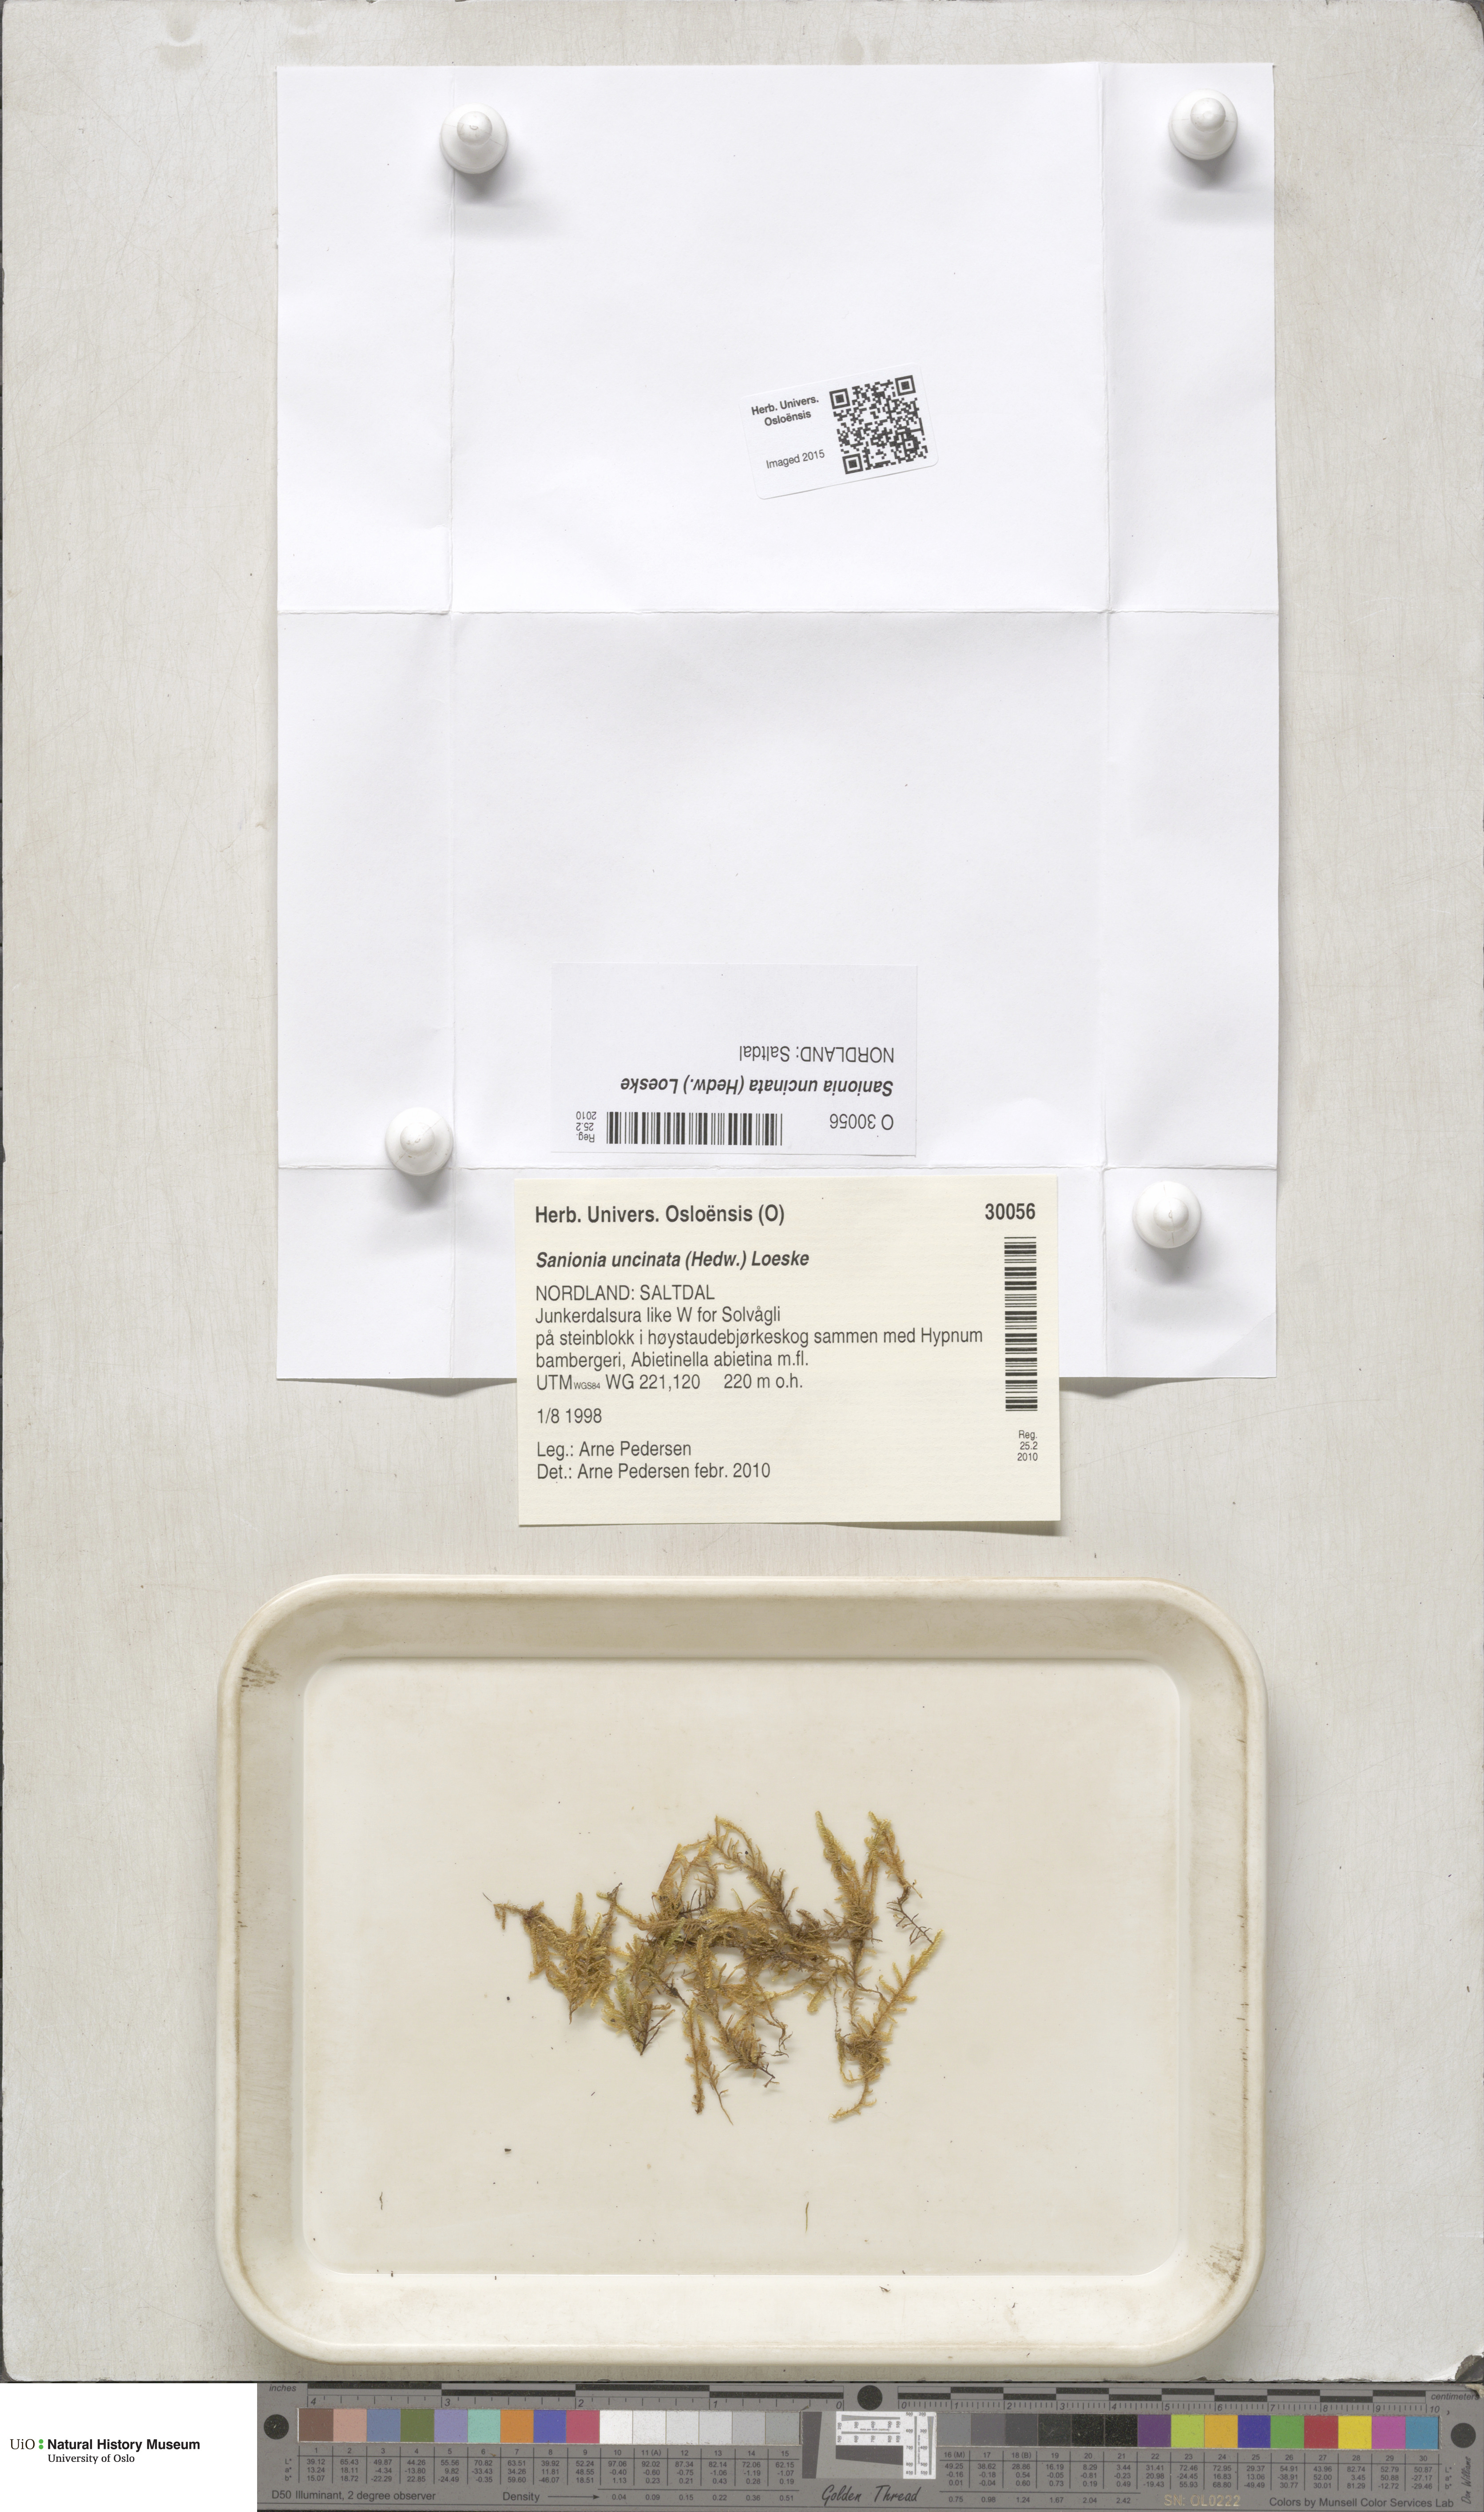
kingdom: Plantae
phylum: Bryophyta
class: Bryopsida
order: Hypnales
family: Scorpidiaceae
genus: Sanionia
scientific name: Sanionia uncinata
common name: Sickle moss
